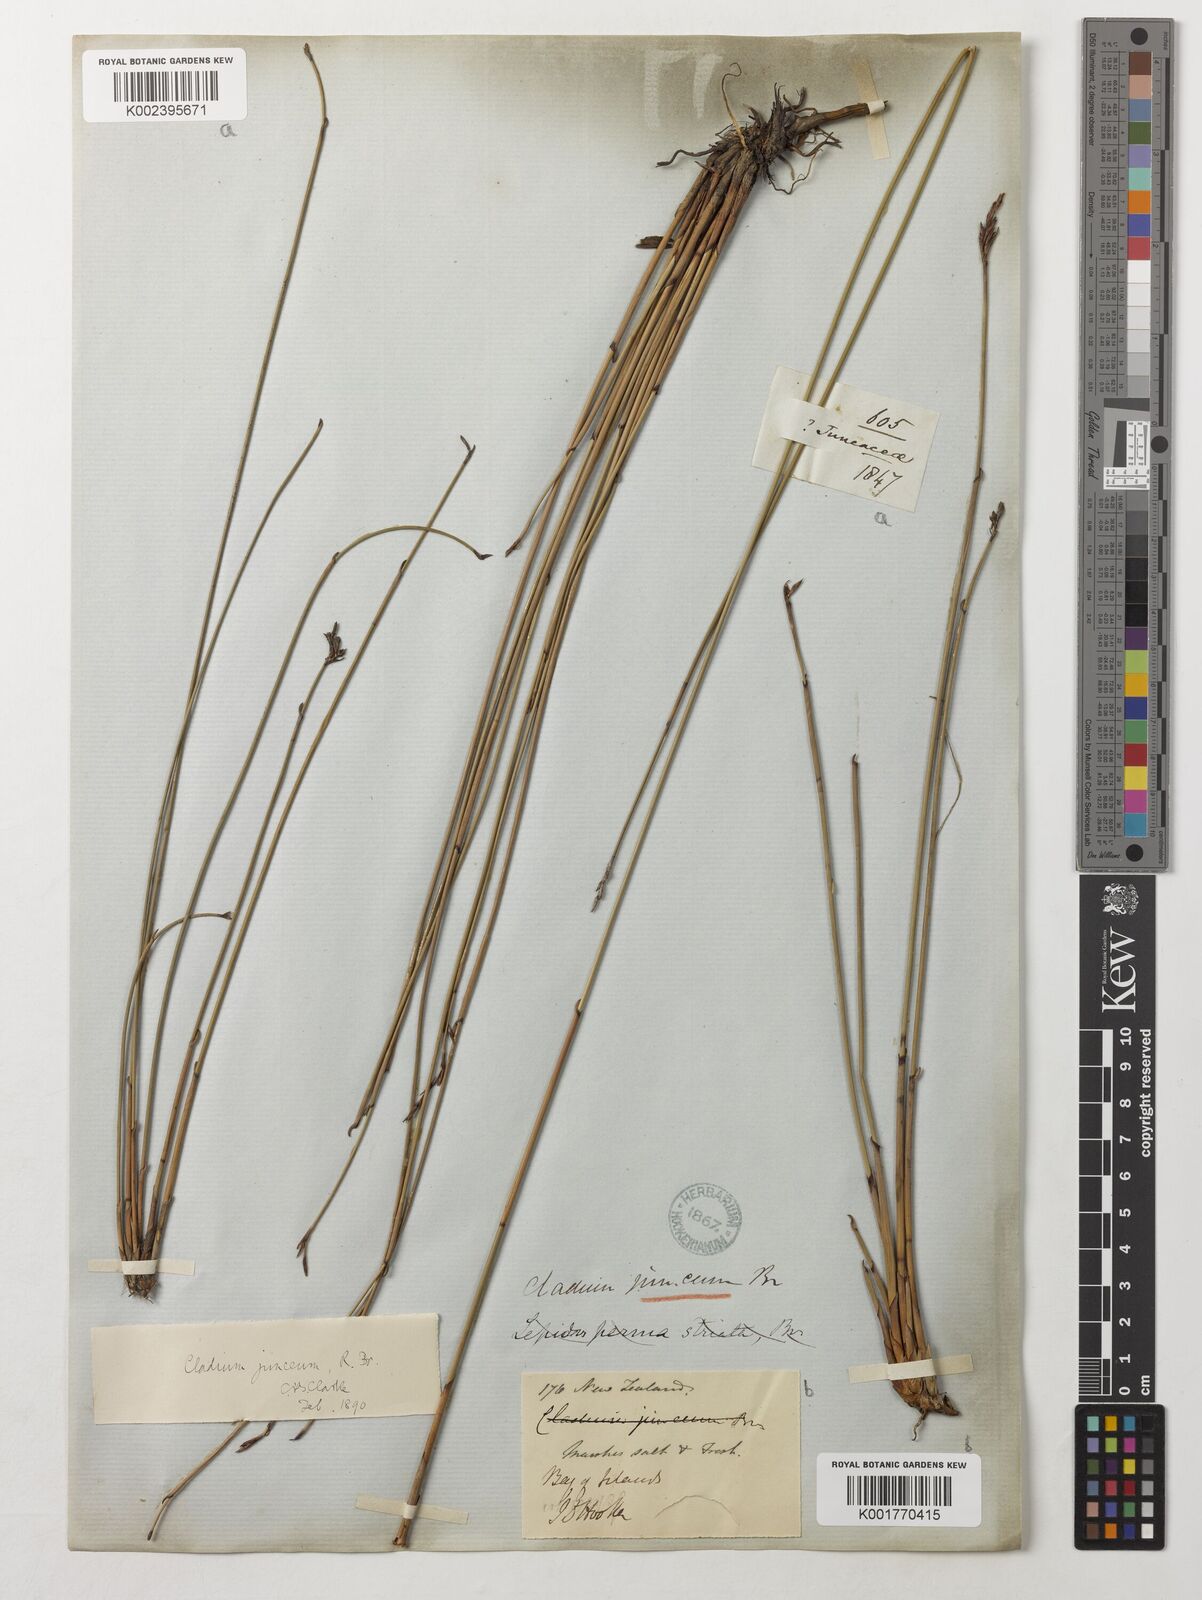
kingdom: Plantae
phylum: Tracheophyta
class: Liliopsida
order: Poales
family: Cyperaceae
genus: Machaerina
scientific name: Machaerina juncea
